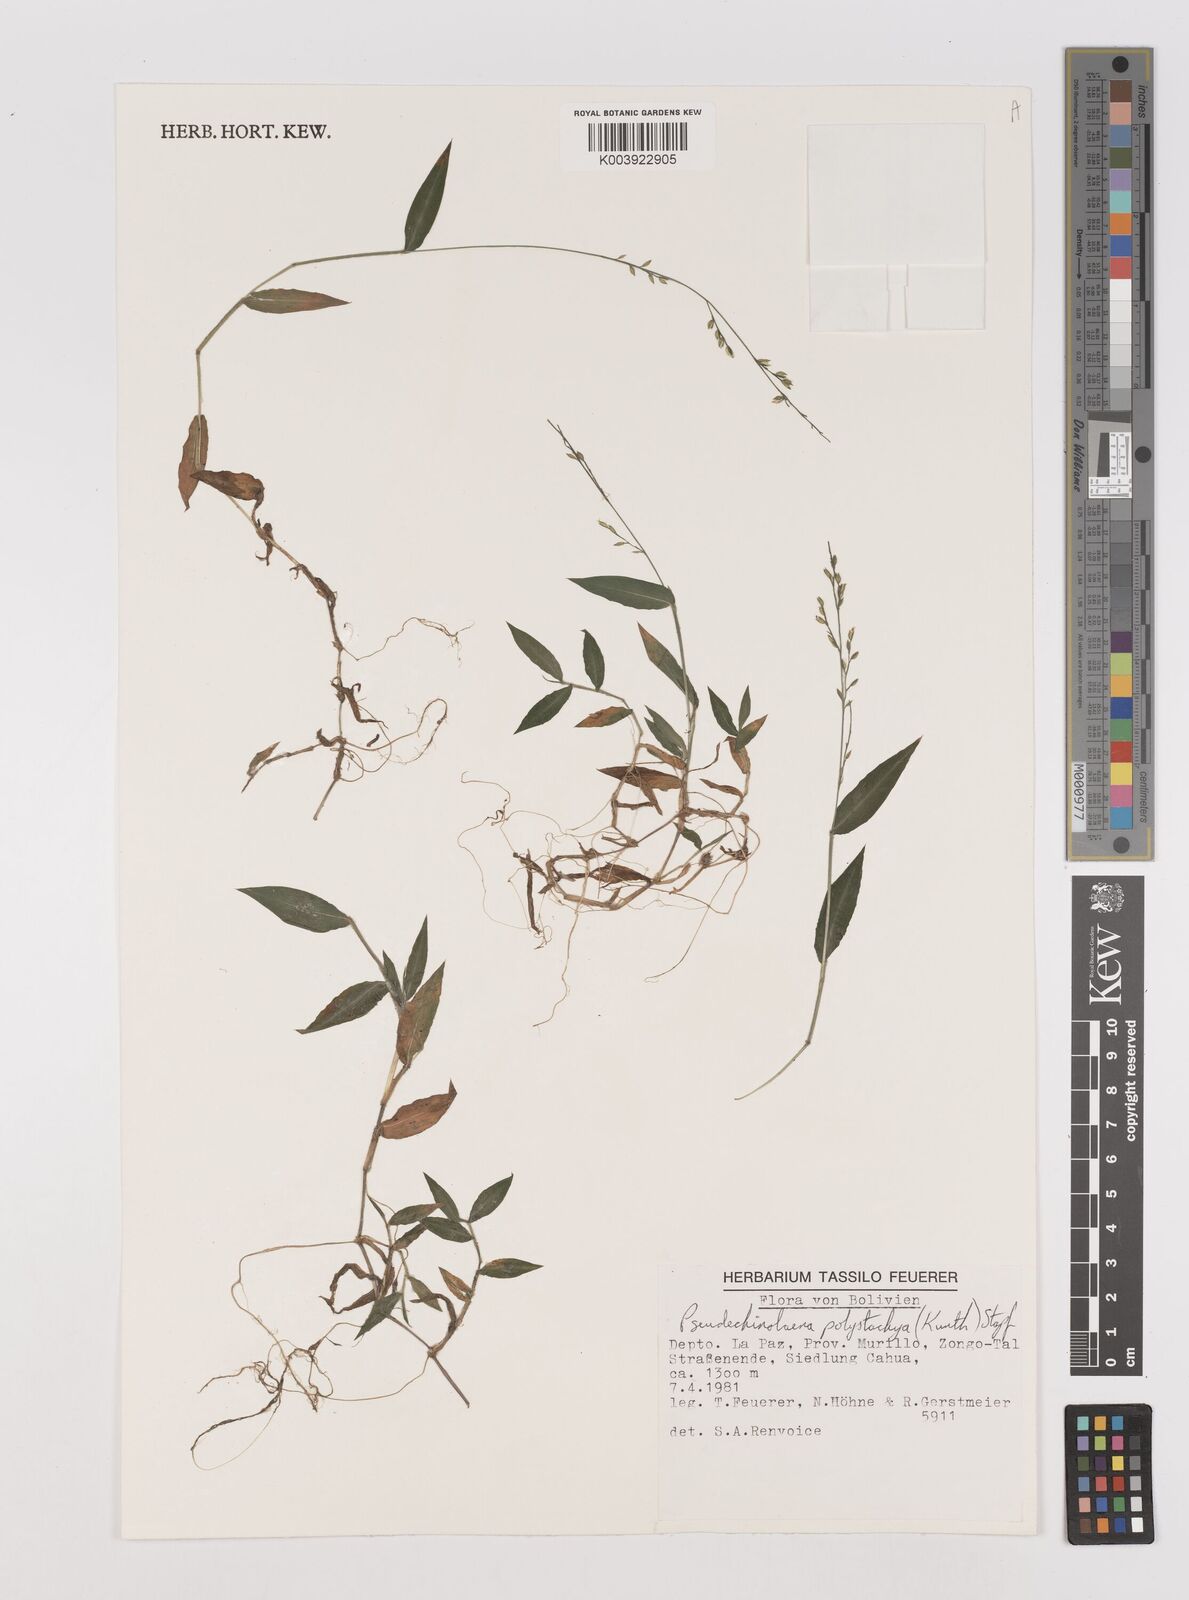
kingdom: Plantae
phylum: Tracheophyta
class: Liliopsida
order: Poales
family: Poaceae
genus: Pseudechinolaena
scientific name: Pseudechinolaena polystachya
